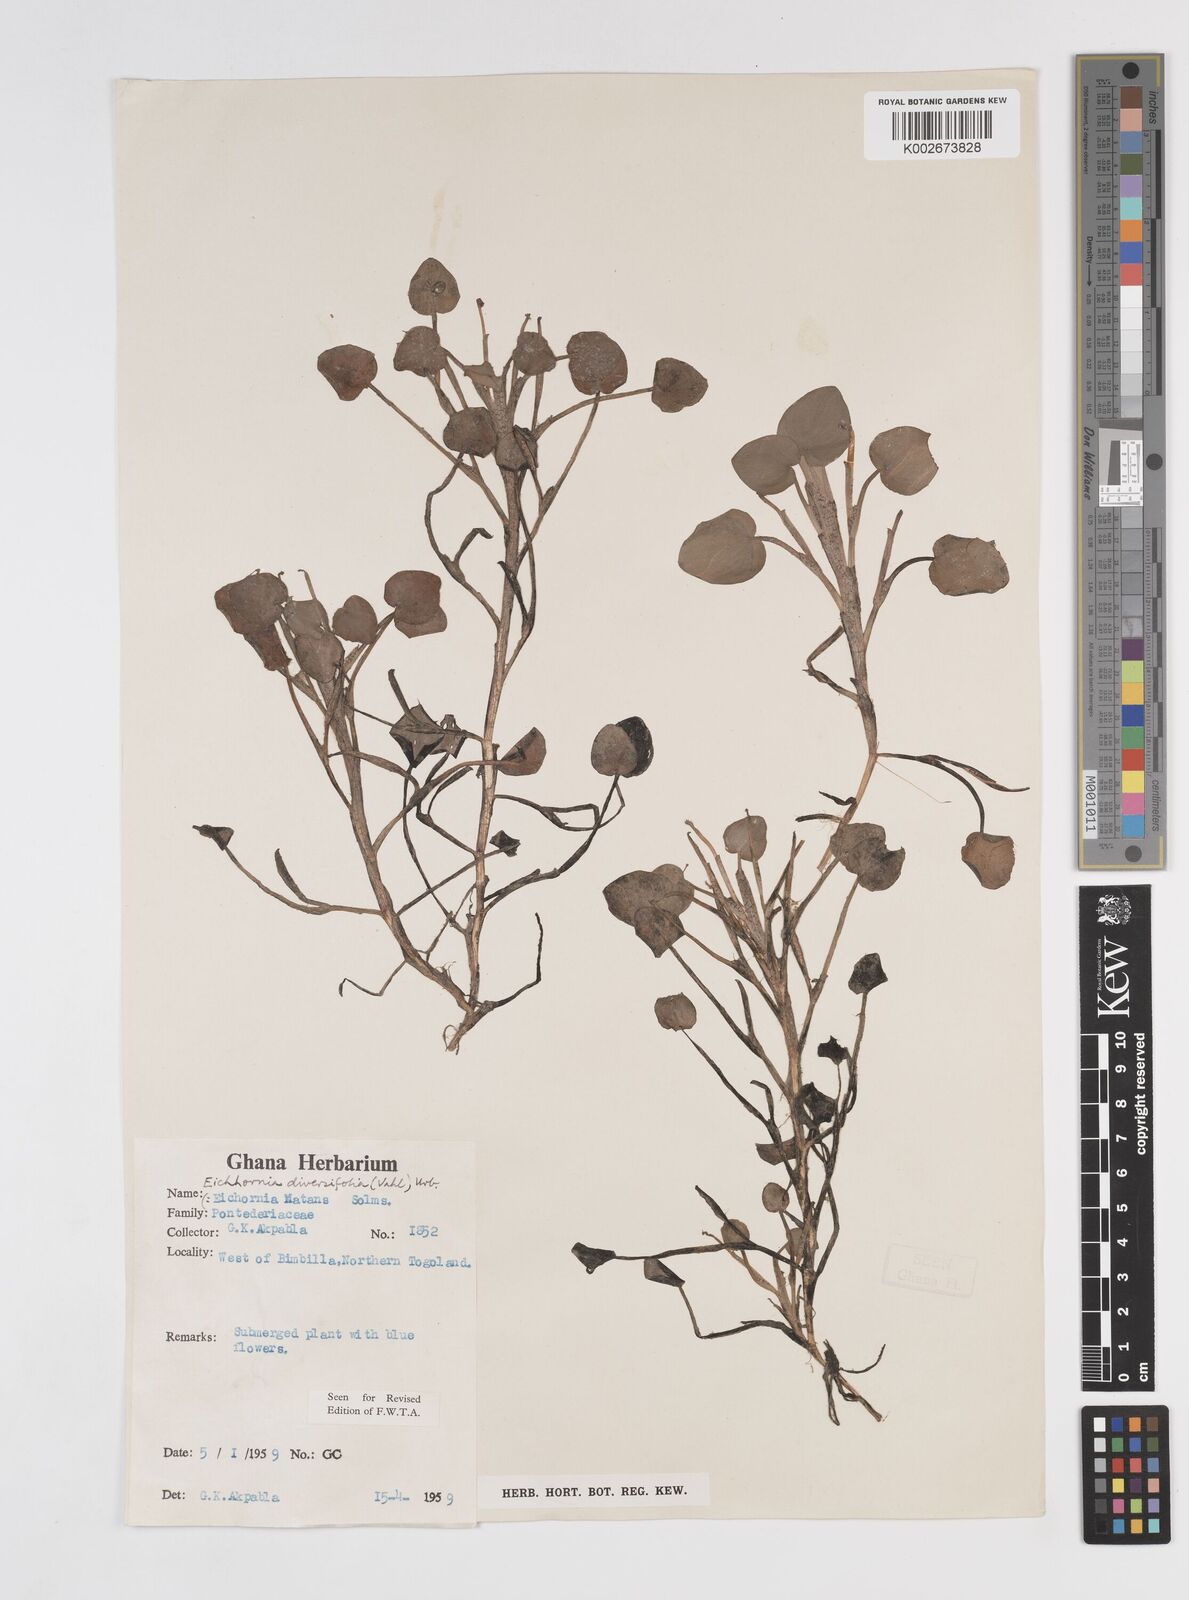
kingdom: Plantae
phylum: Tracheophyta
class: Liliopsida
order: Commelinales
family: Pontederiaceae
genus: Pontederia
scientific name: Pontederia diversifolia
